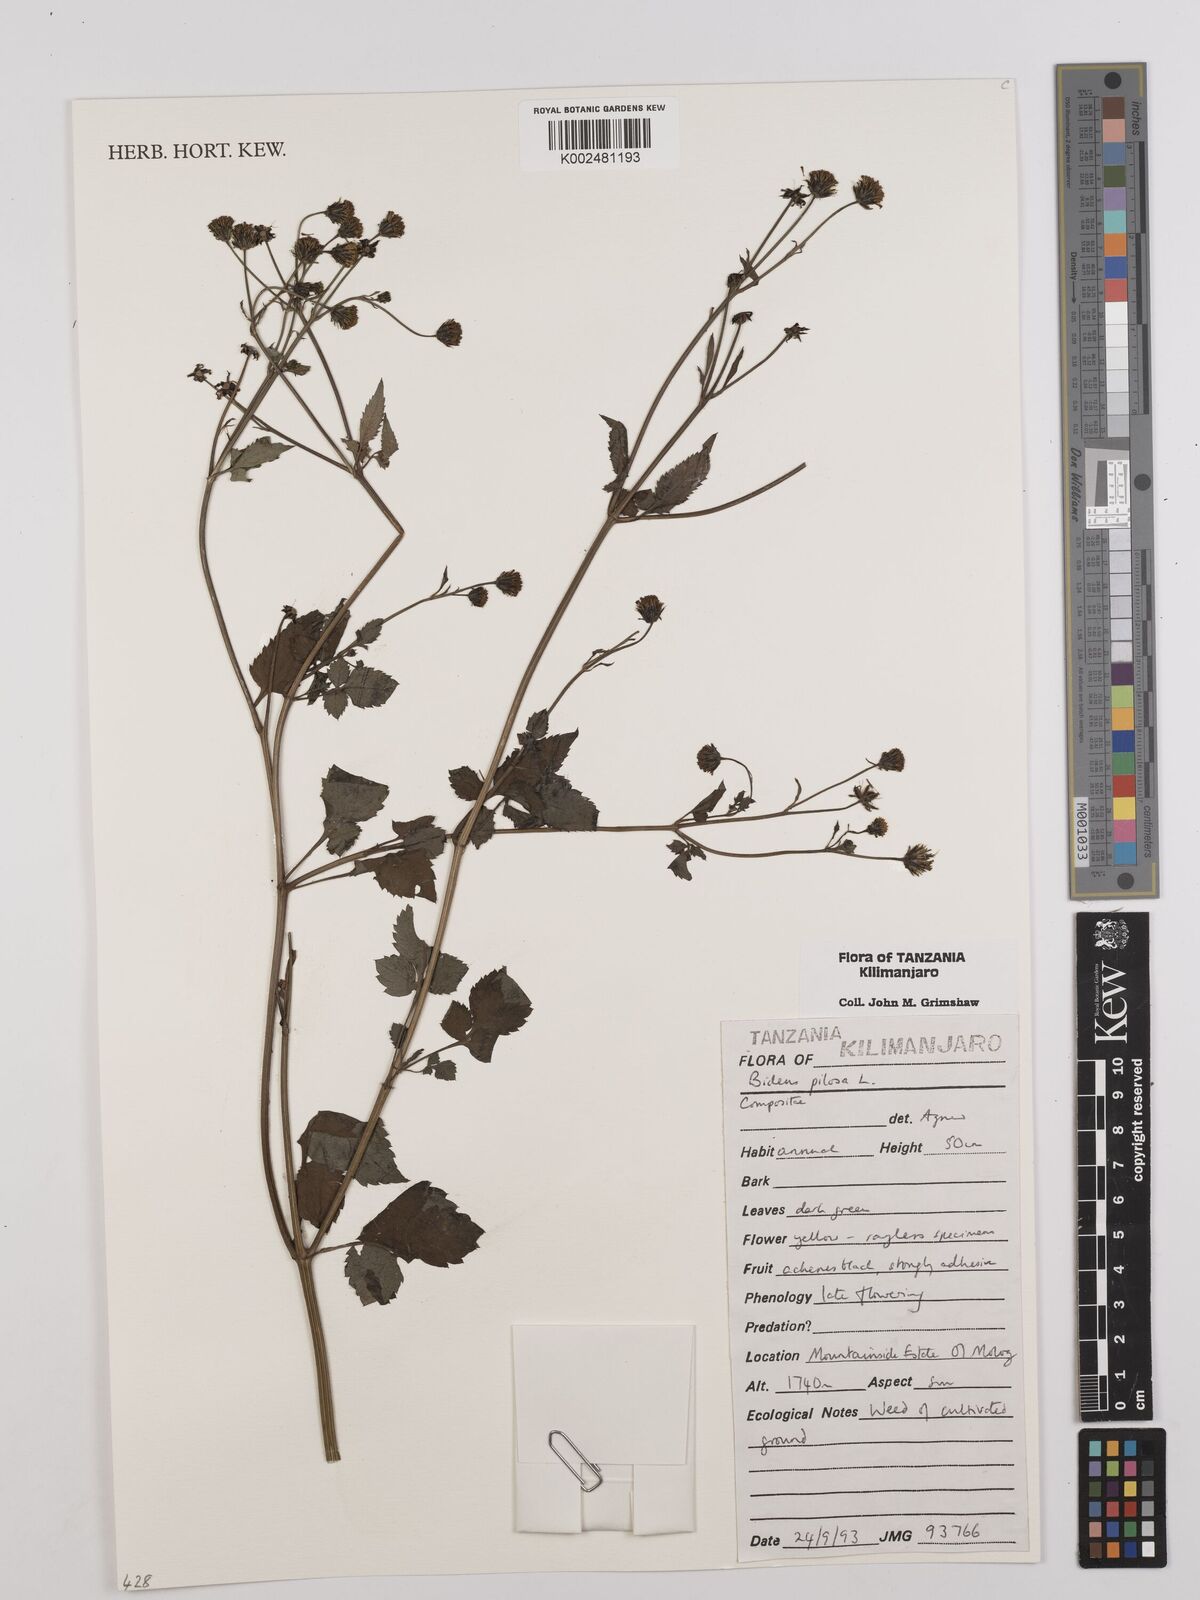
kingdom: Plantae
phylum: Tracheophyta
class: Magnoliopsida
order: Asterales
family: Asteraceae
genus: Bidens
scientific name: Bidens pilosa
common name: Black-jack
